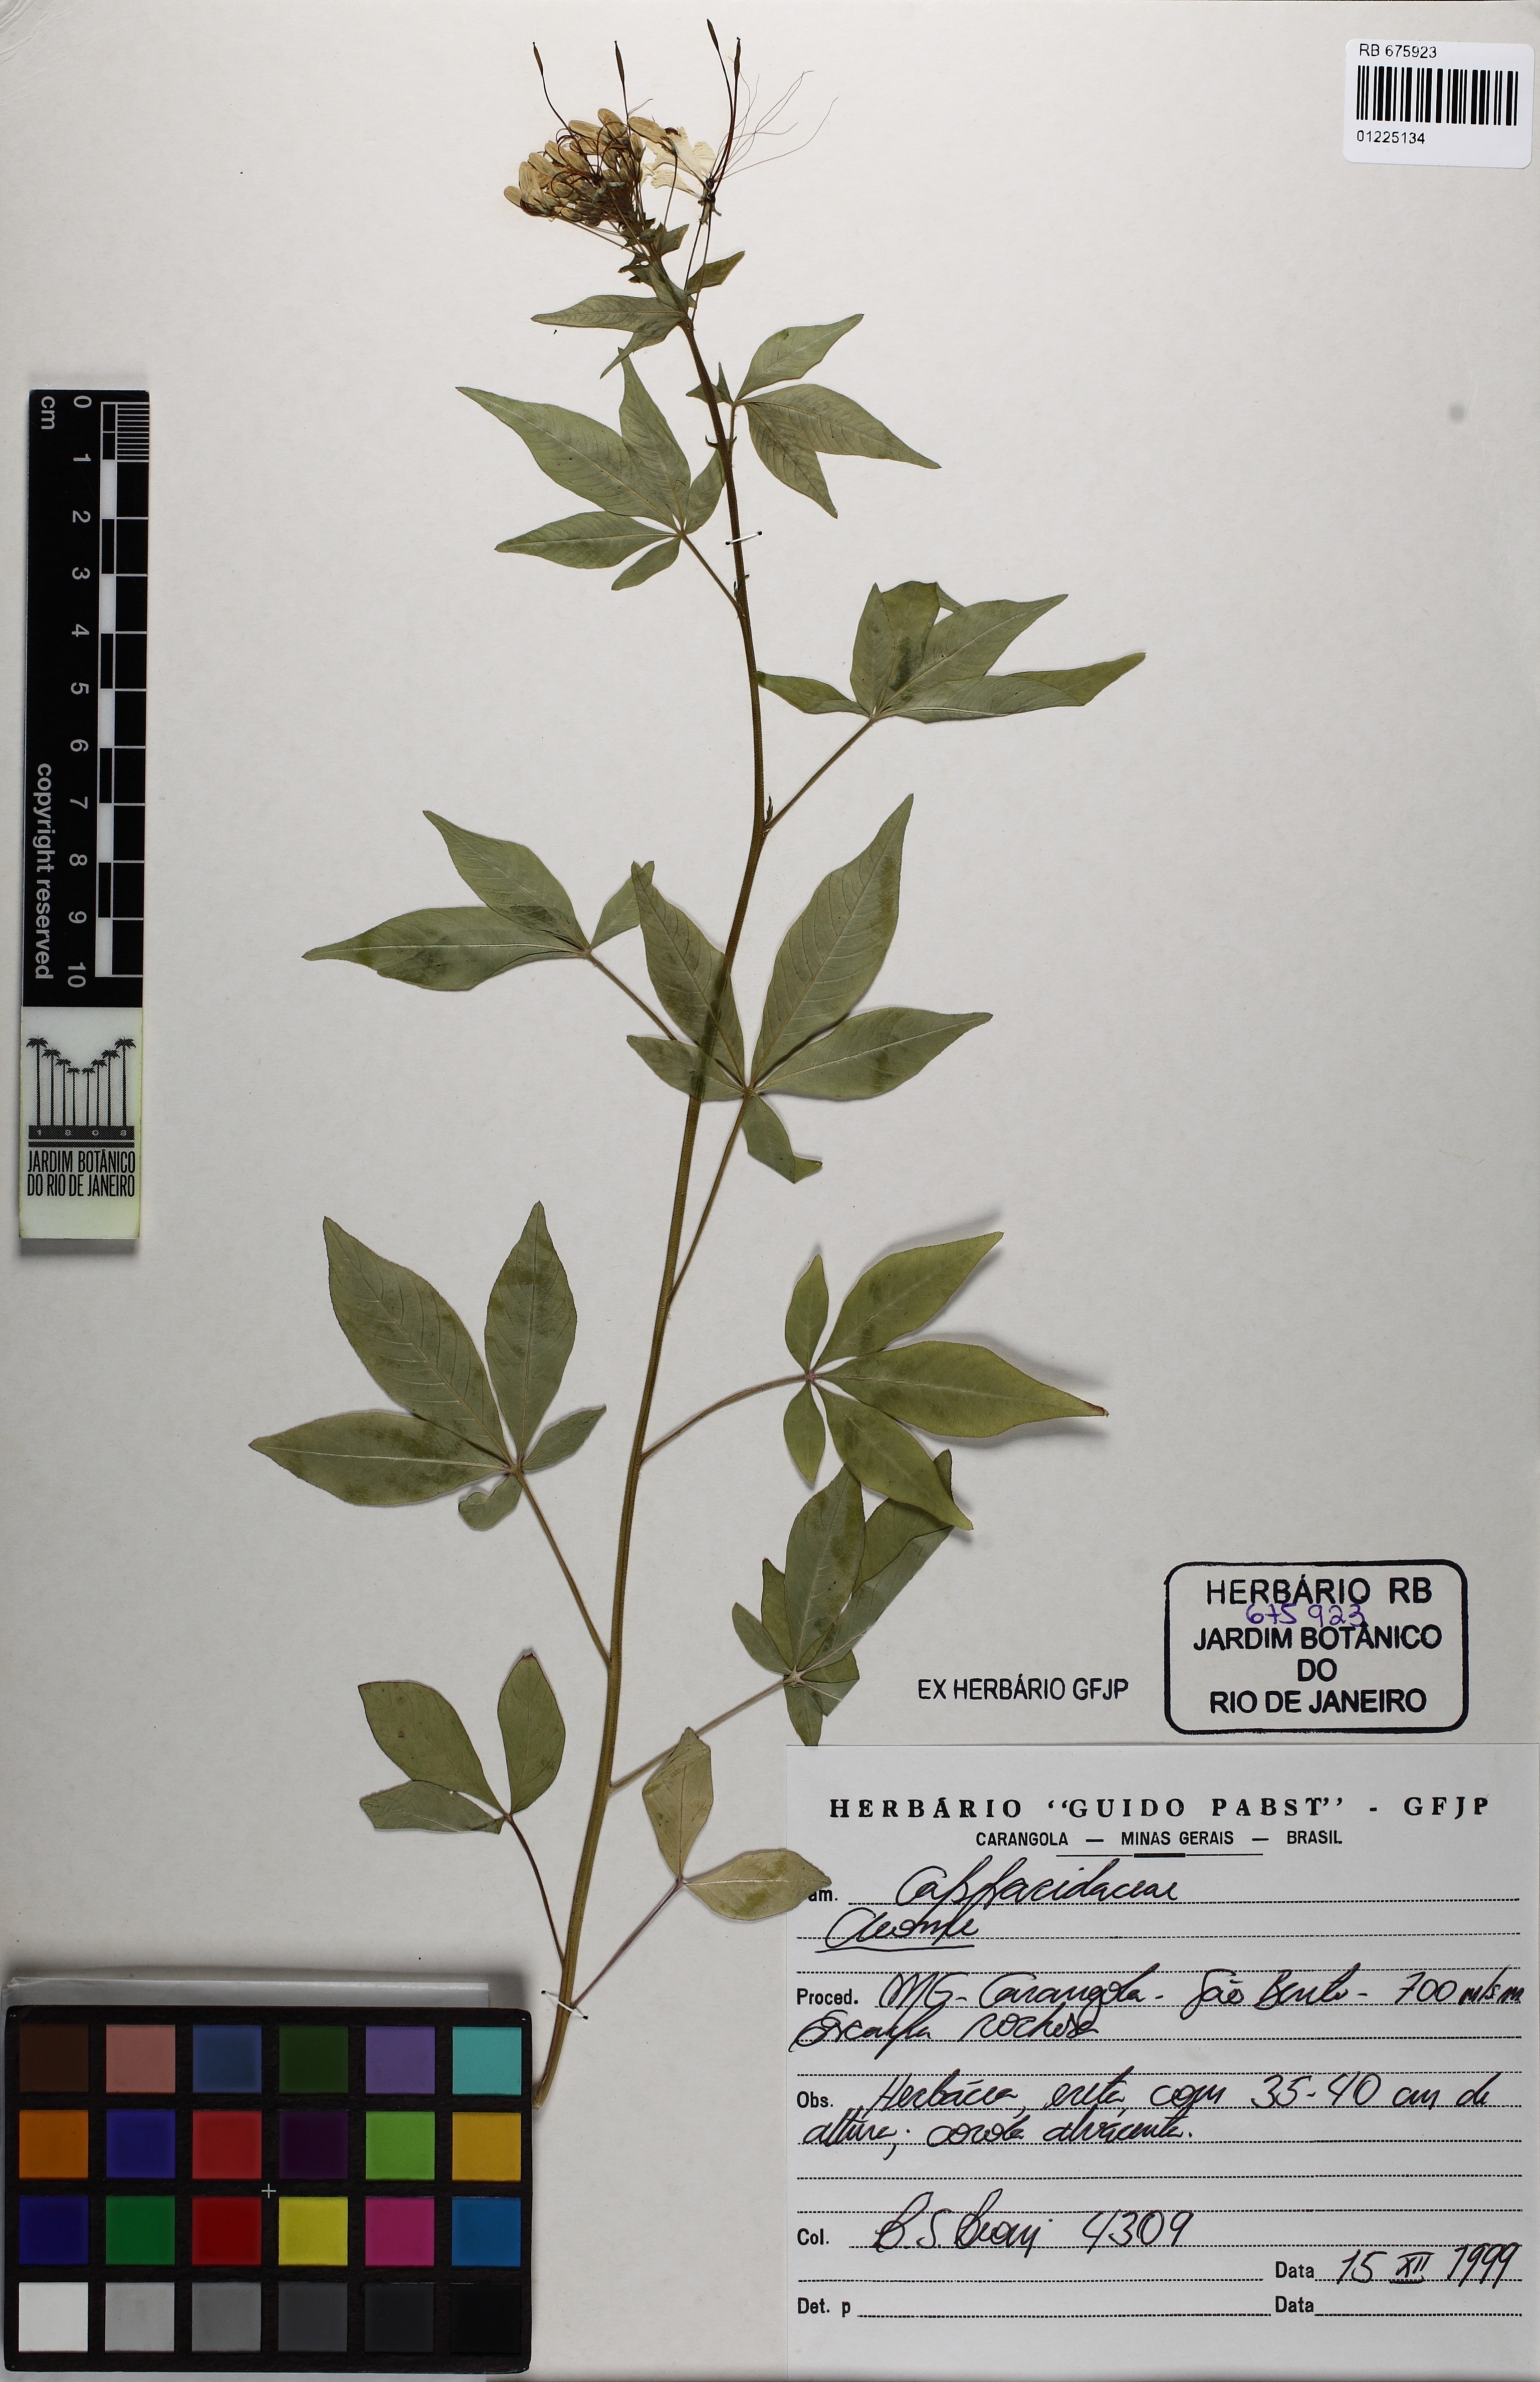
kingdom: Plantae
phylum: Tracheophyta
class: Magnoliopsida
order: Brassicales
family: Cleomaceae
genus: Cleome
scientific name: Cleome
